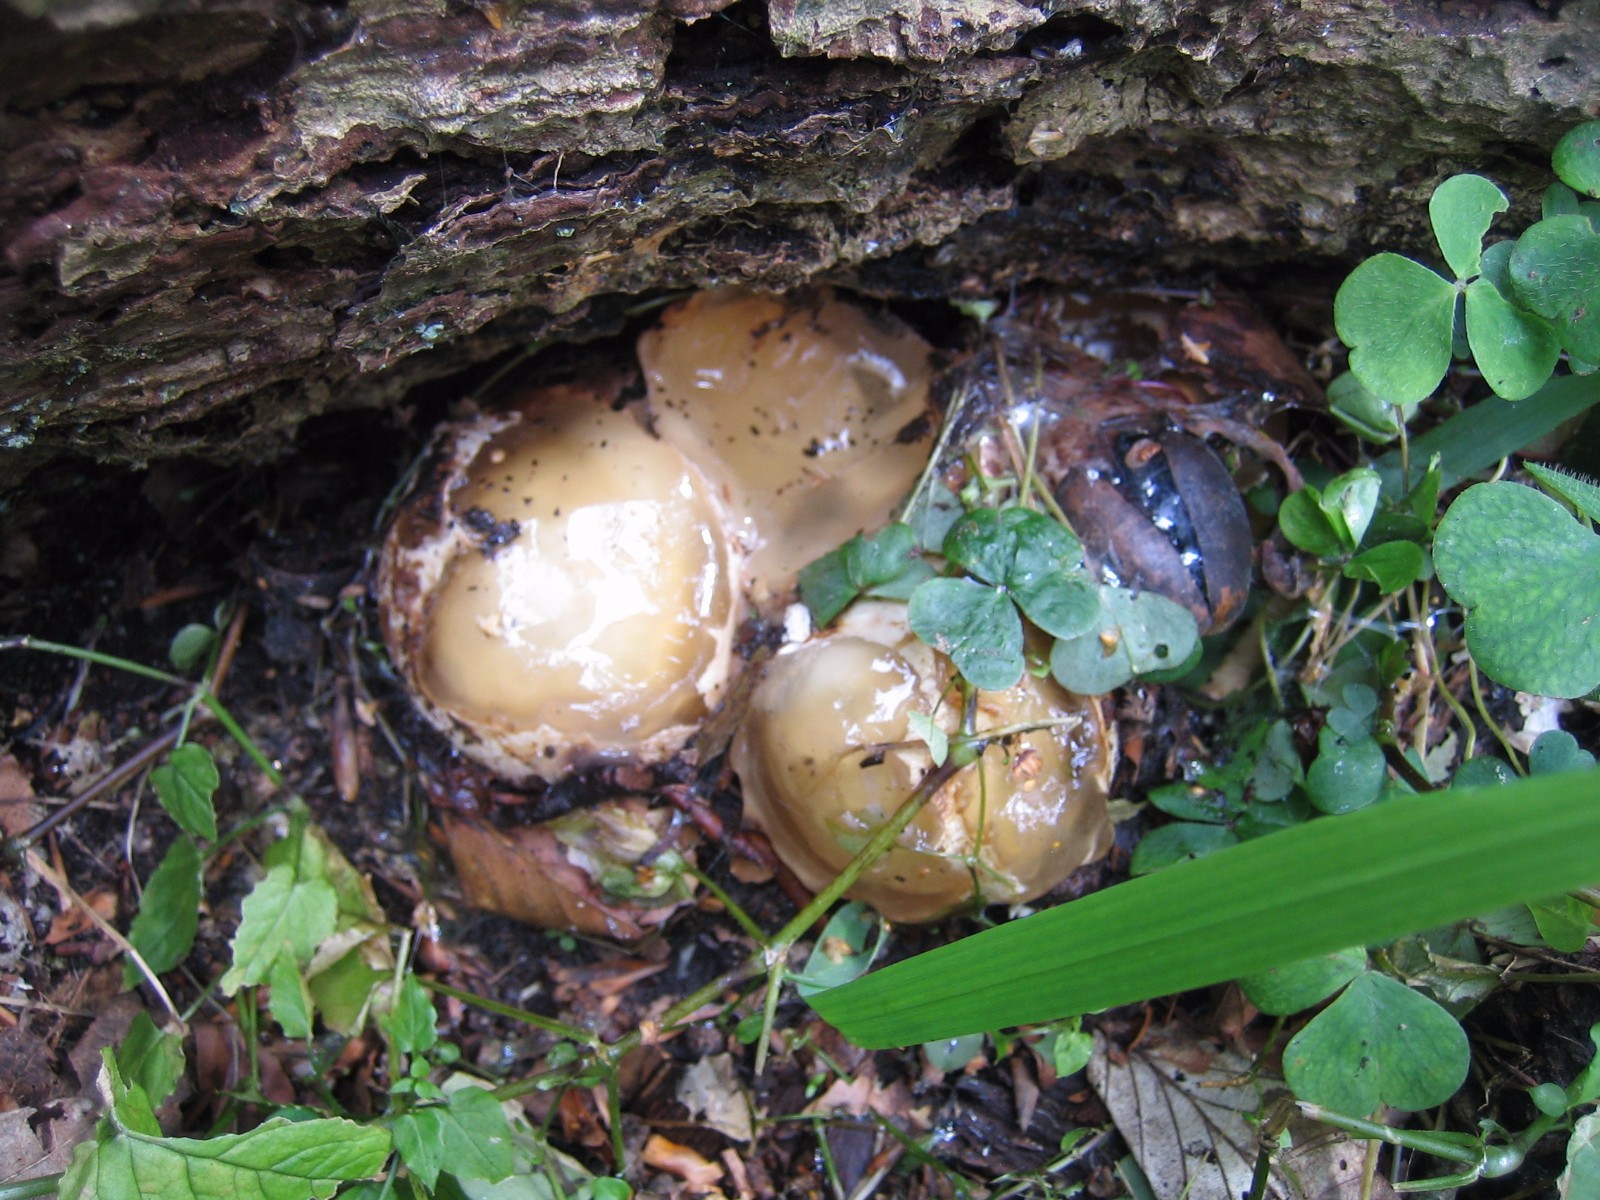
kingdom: Fungi
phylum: Basidiomycota
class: Agaricomycetes
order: Phallales
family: Phallaceae
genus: Phallus
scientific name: Phallus impudicus
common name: almindelig stinksvamp
